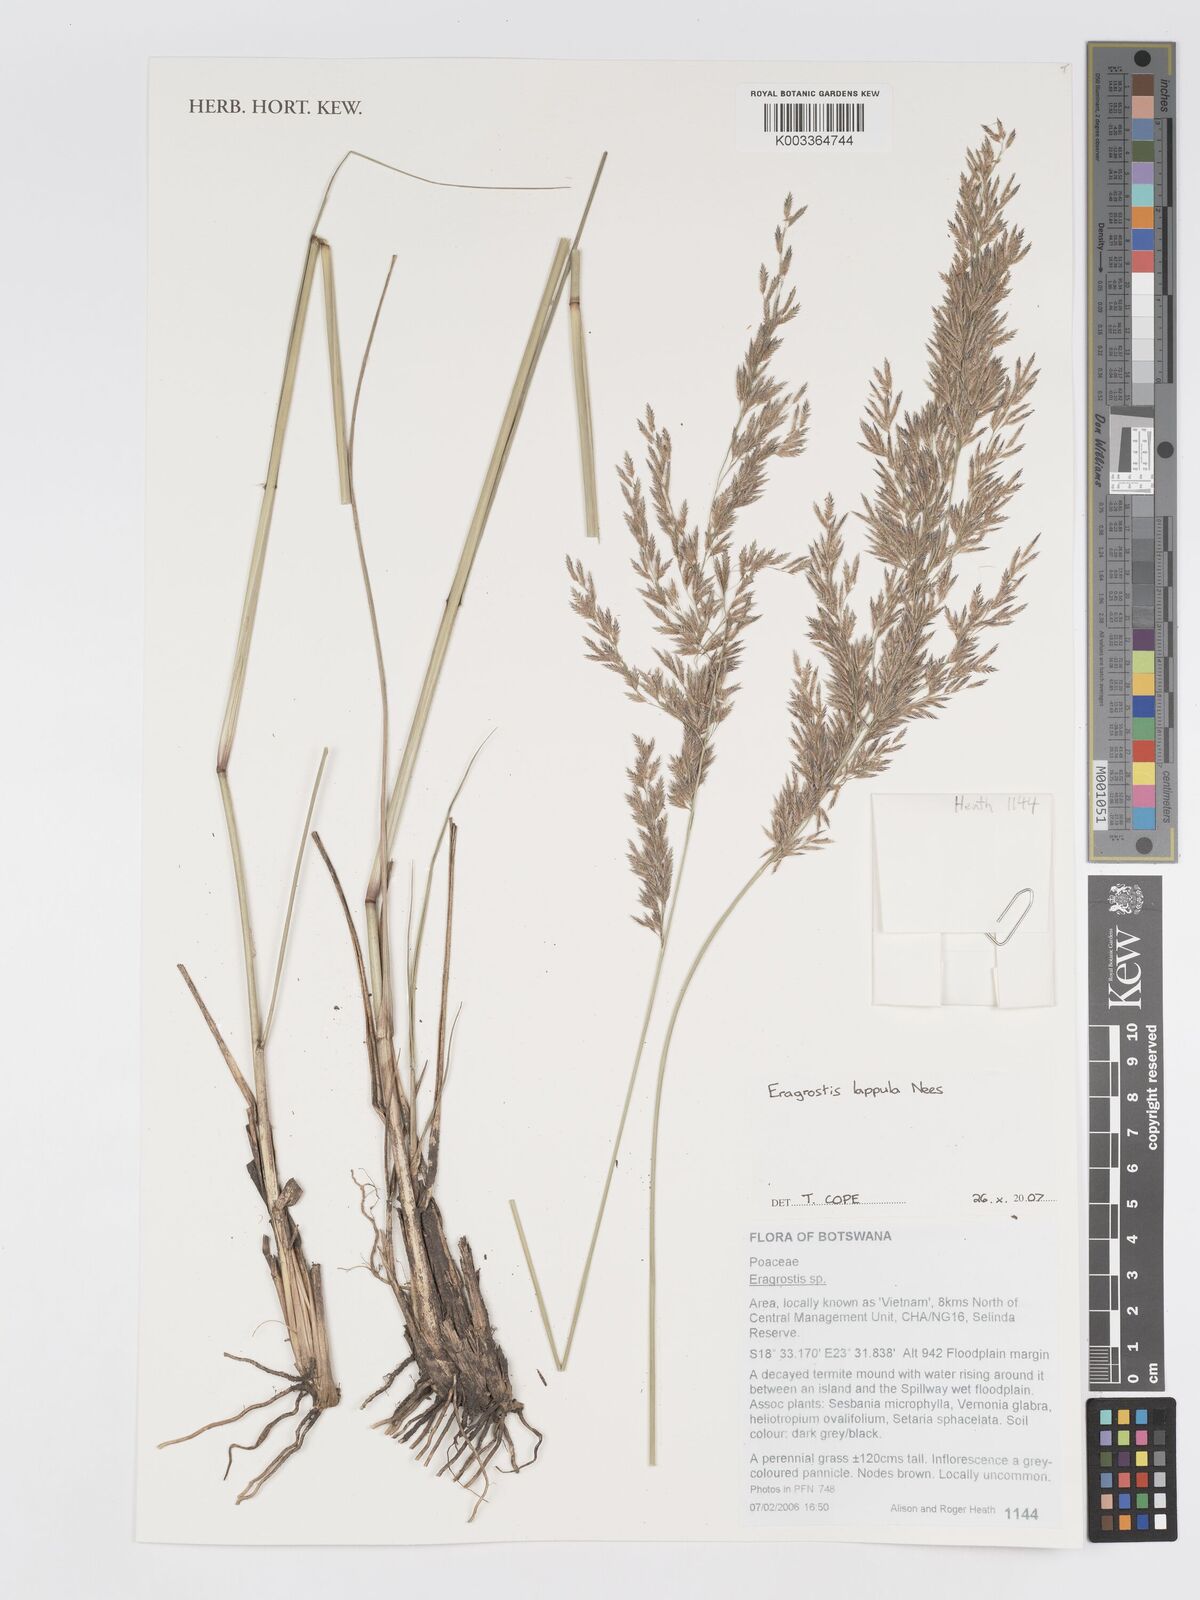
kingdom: Plantae
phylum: Tracheophyta
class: Liliopsida
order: Poales
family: Poaceae
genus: Eragrostis
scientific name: Eragrostis lappula
